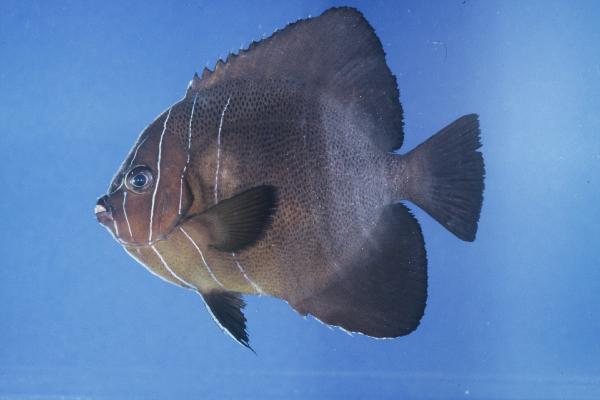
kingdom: Animalia
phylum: Chordata
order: Perciformes
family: Pomacanthidae
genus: Pomacanthus
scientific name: Pomacanthus rhomboides
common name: Old woman
